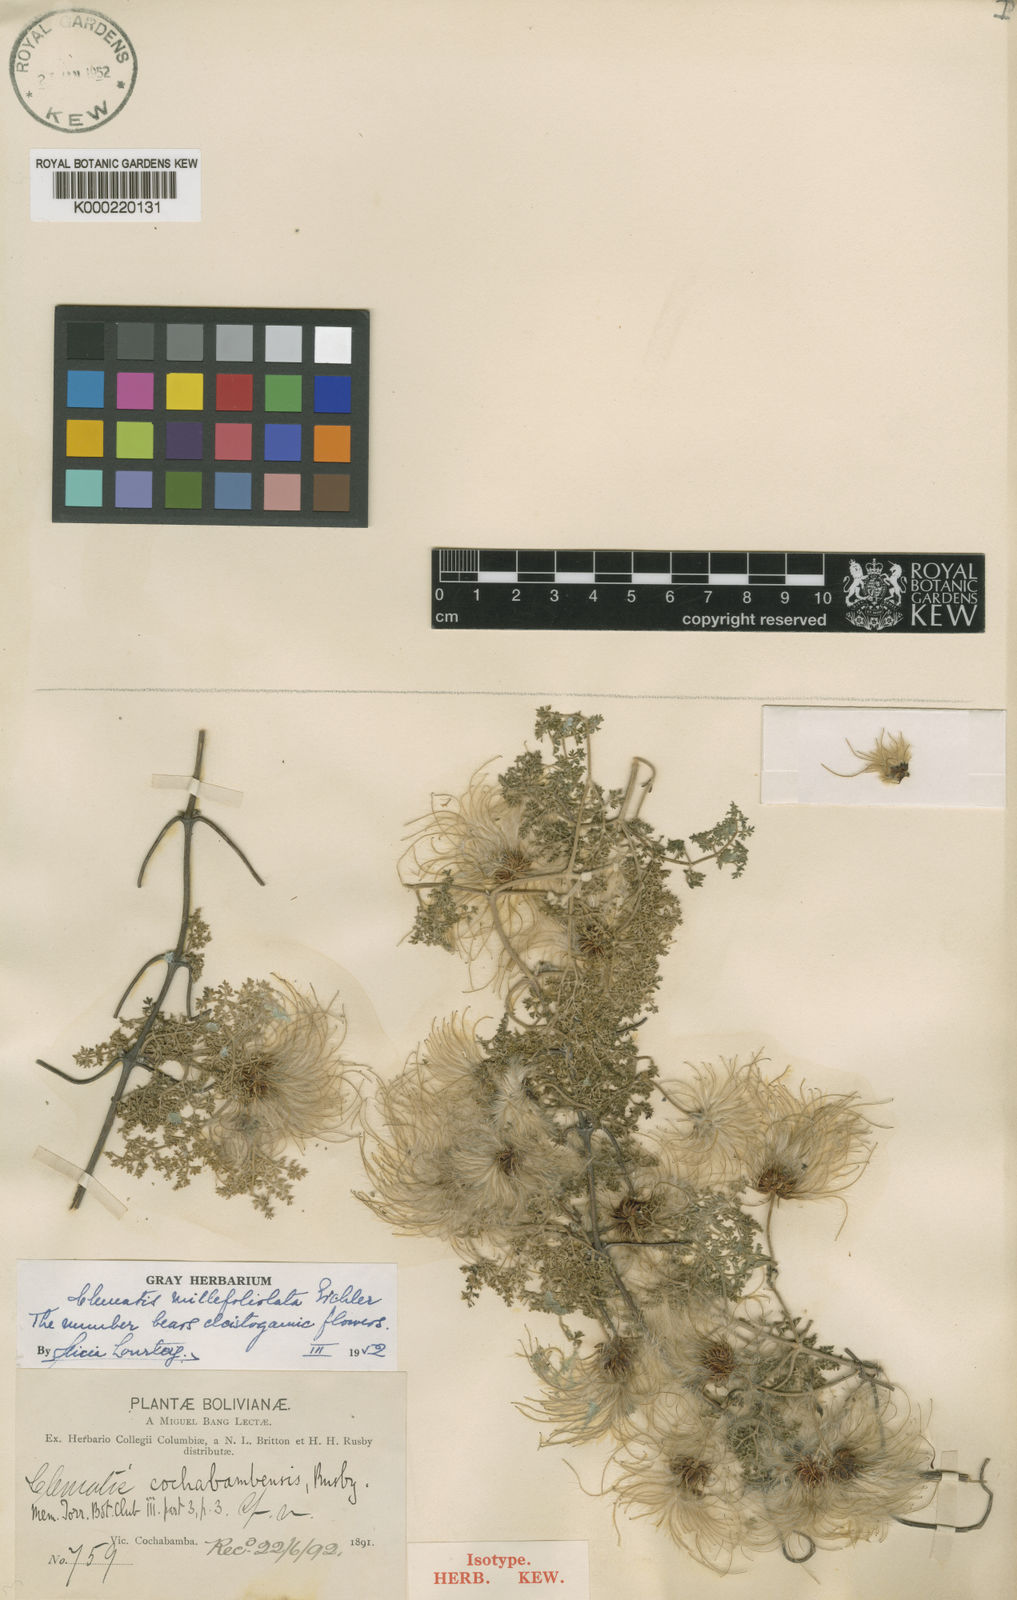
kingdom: Plantae
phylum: Tracheophyta
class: Magnoliopsida
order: Ranunculales
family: Ranunculaceae
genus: Clematis
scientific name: Clematis
